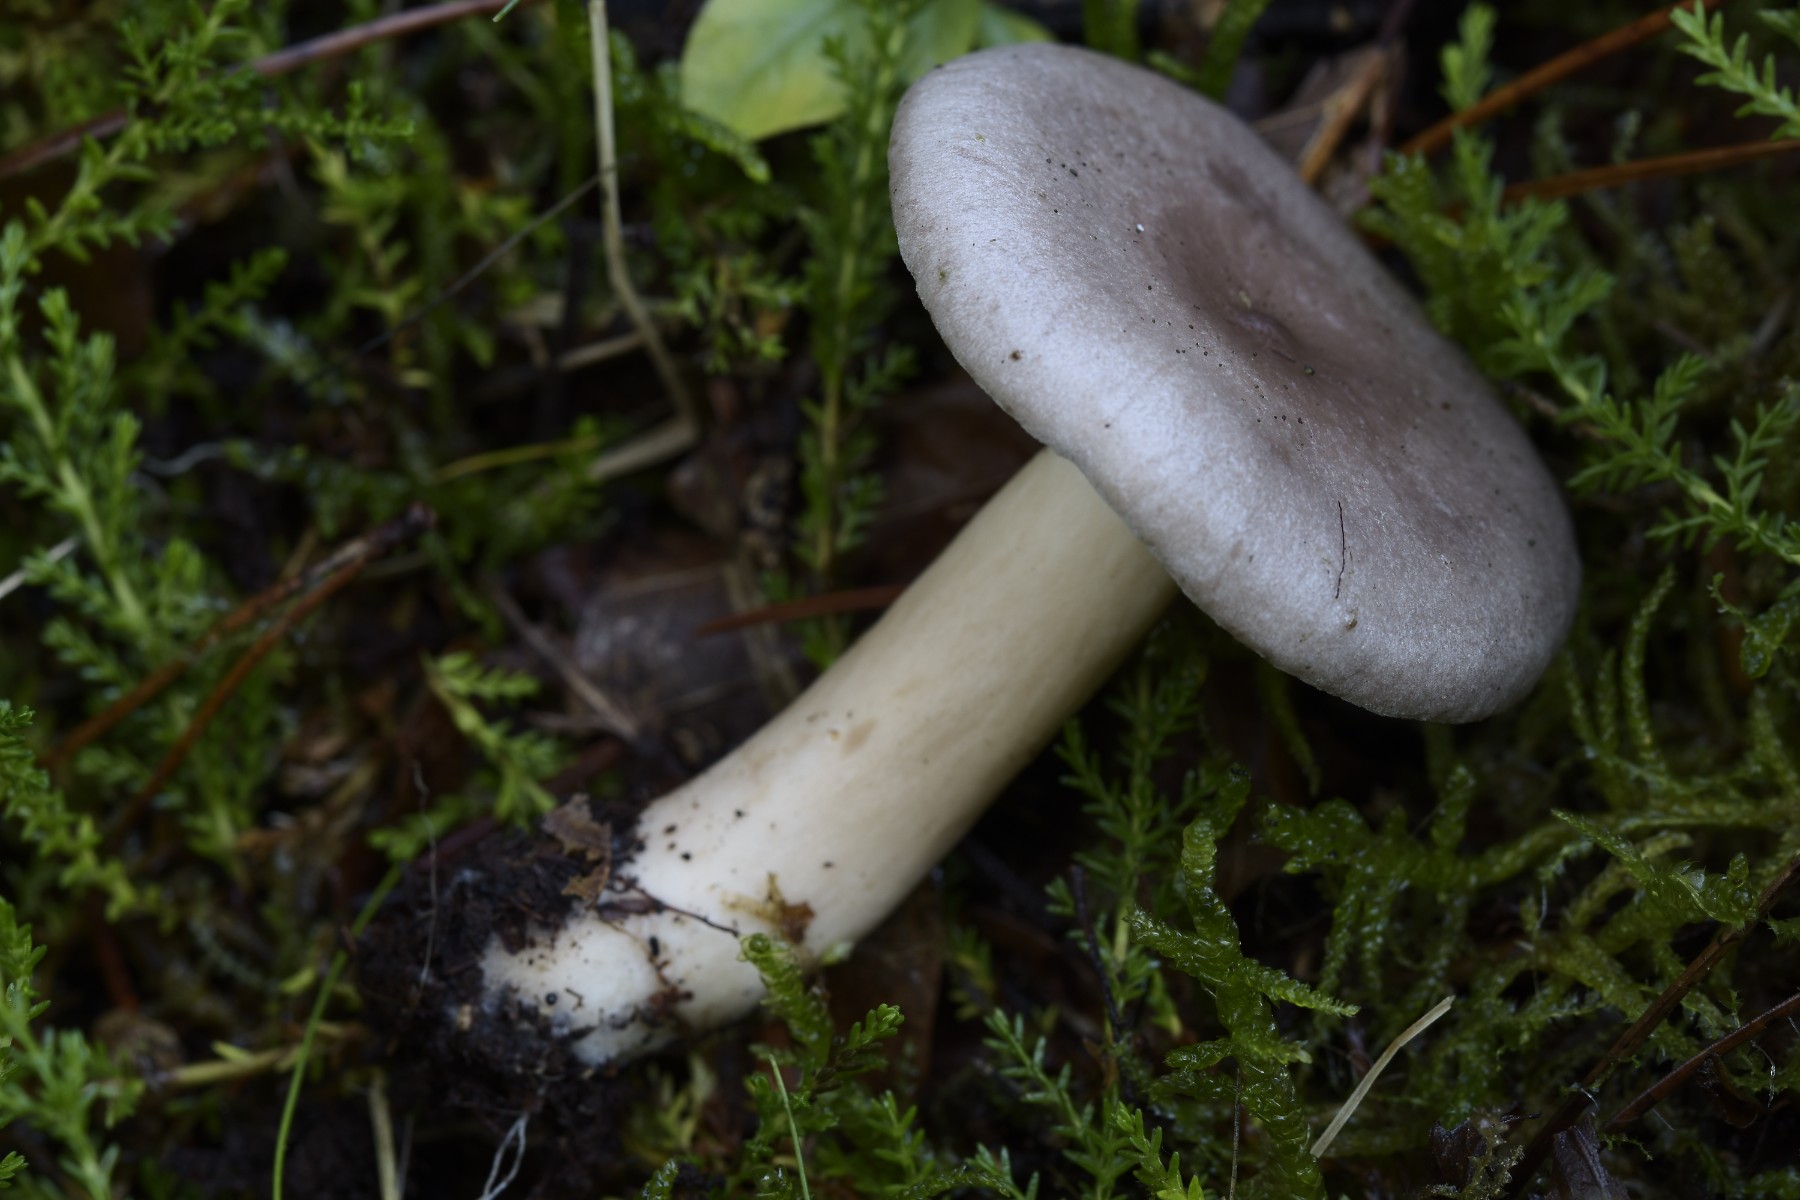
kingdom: Fungi
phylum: Basidiomycota
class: Agaricomycetes
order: Russulales
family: Russulaceae
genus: Lactarius
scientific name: Lactarius vietus
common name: violetgrå mælkehat
